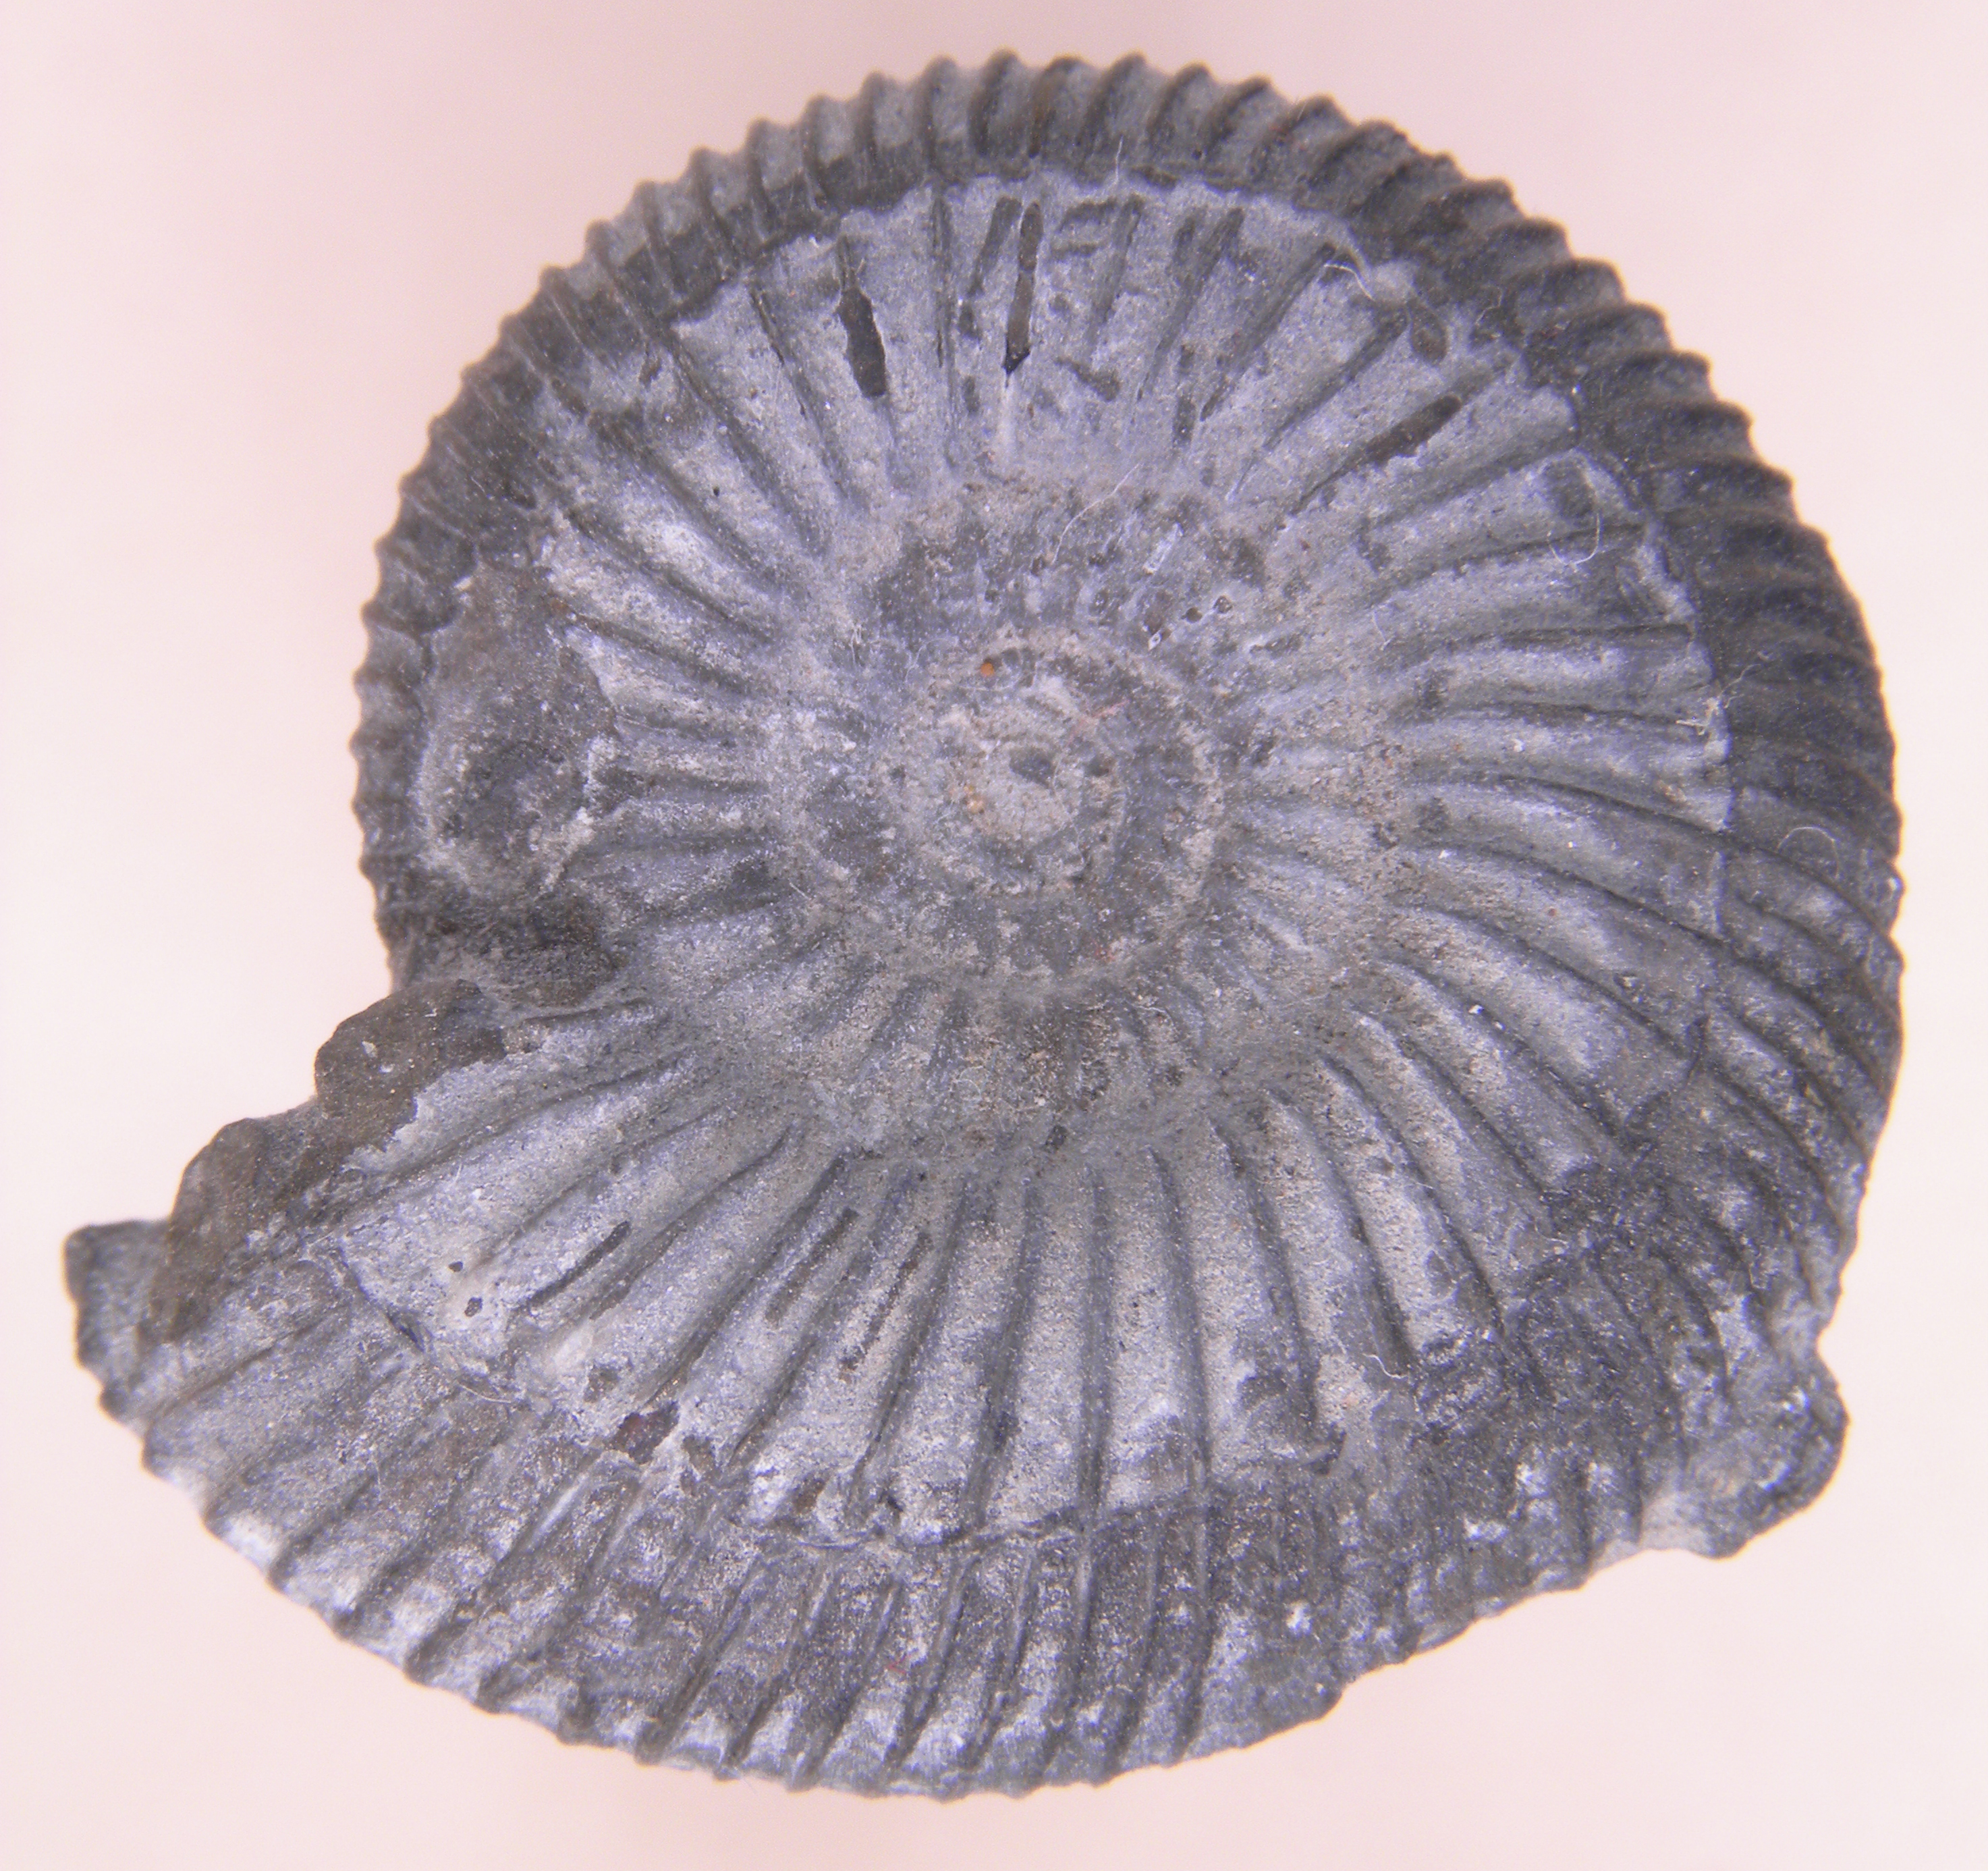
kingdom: Animalia
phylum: Mollusca
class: Cephalopoda
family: Dactylioceratidae
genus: Dactylioceras
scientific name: Dactylioceras
